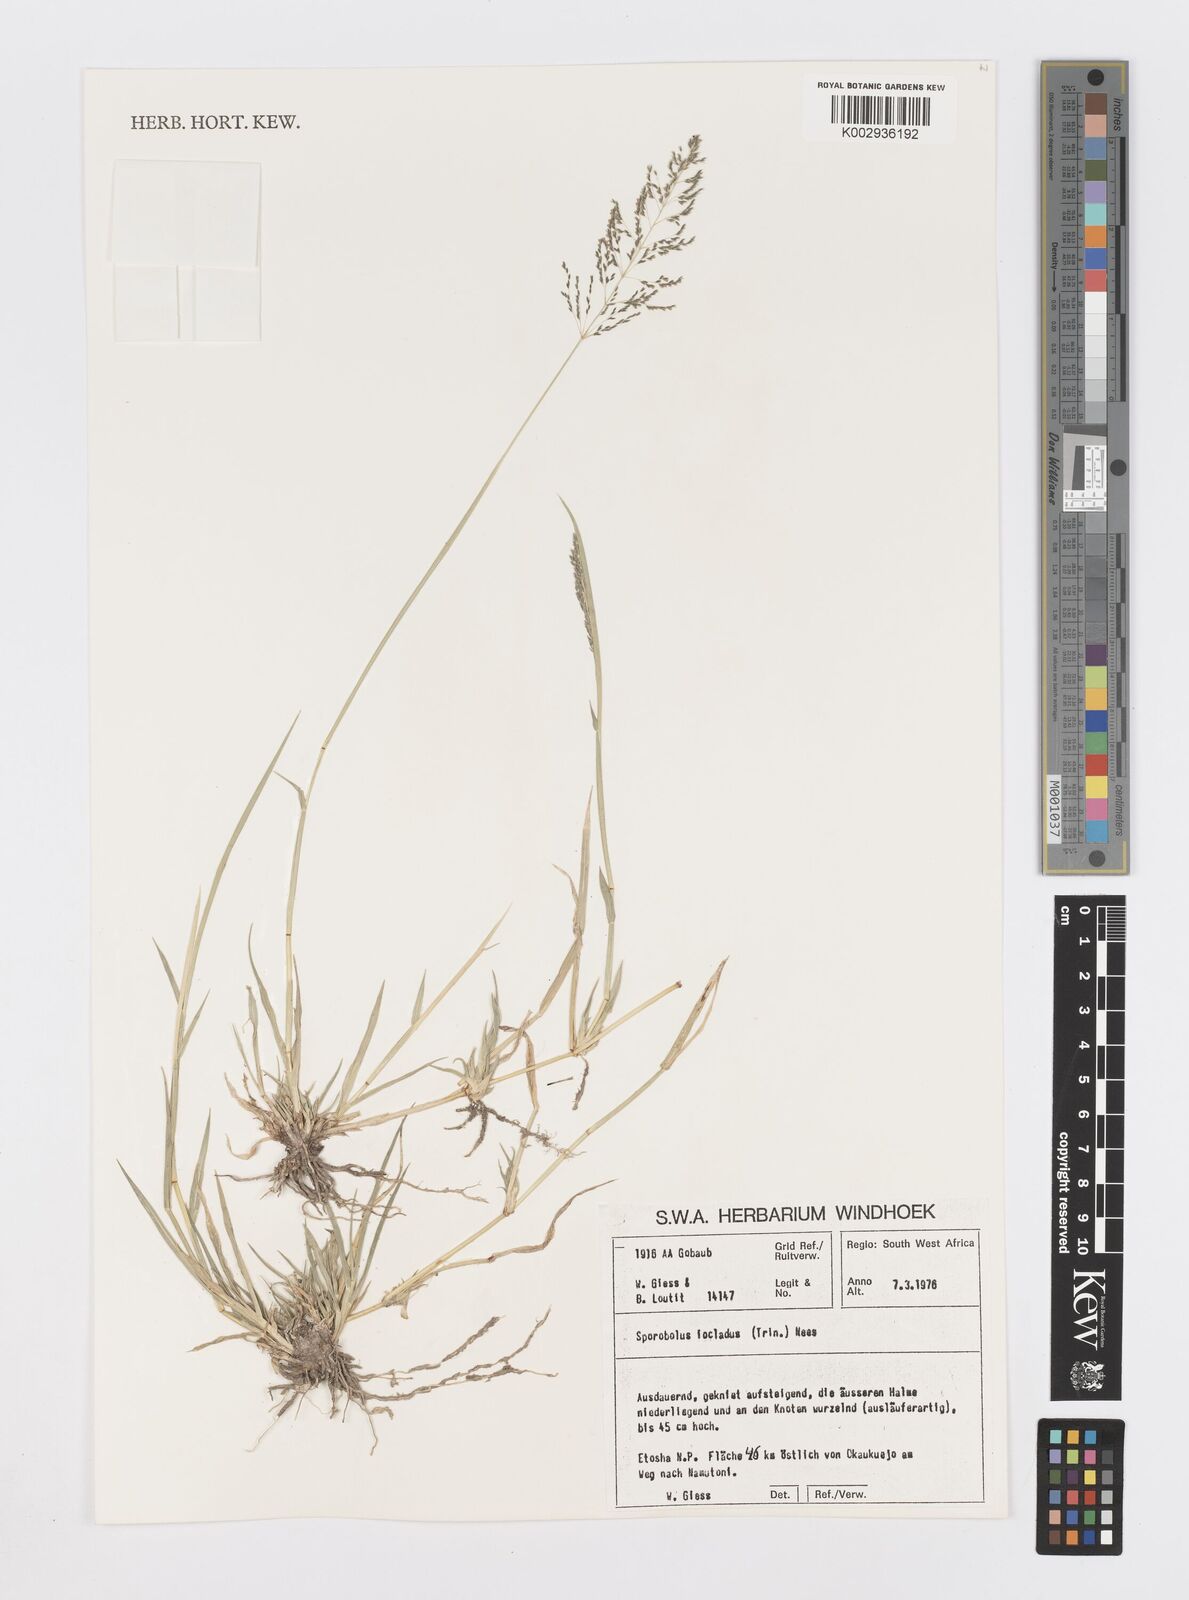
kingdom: Plantae
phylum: Tracheophyta
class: Liliopsida
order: Poales
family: Poaceae
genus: Sporobolus
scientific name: Sporobolus ioclados
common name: Pan dropseed
